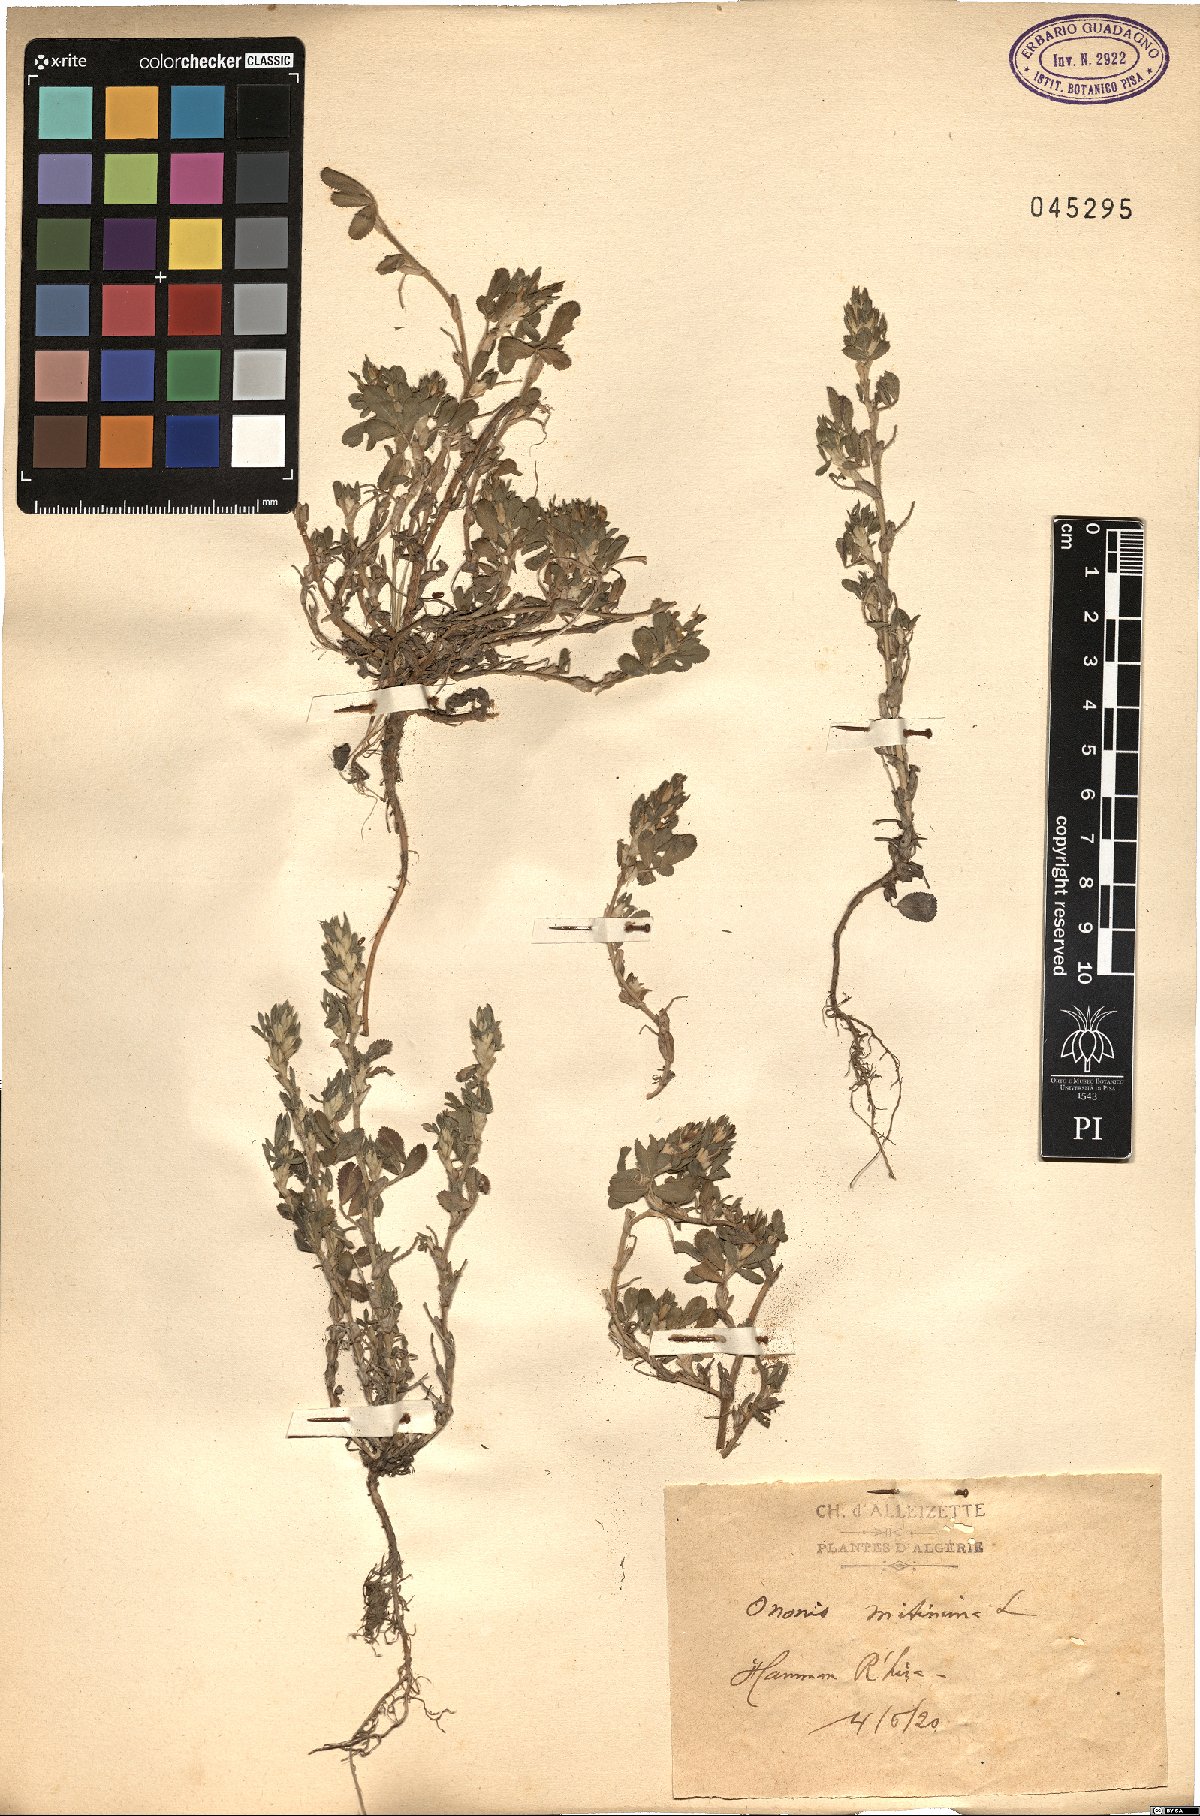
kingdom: Plantae
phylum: Tracheophyta
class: Magnoliopsida
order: Fabales
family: Fabaceae
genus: Ononis
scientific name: Ononis mitissima
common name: Mediterranean restharrow
